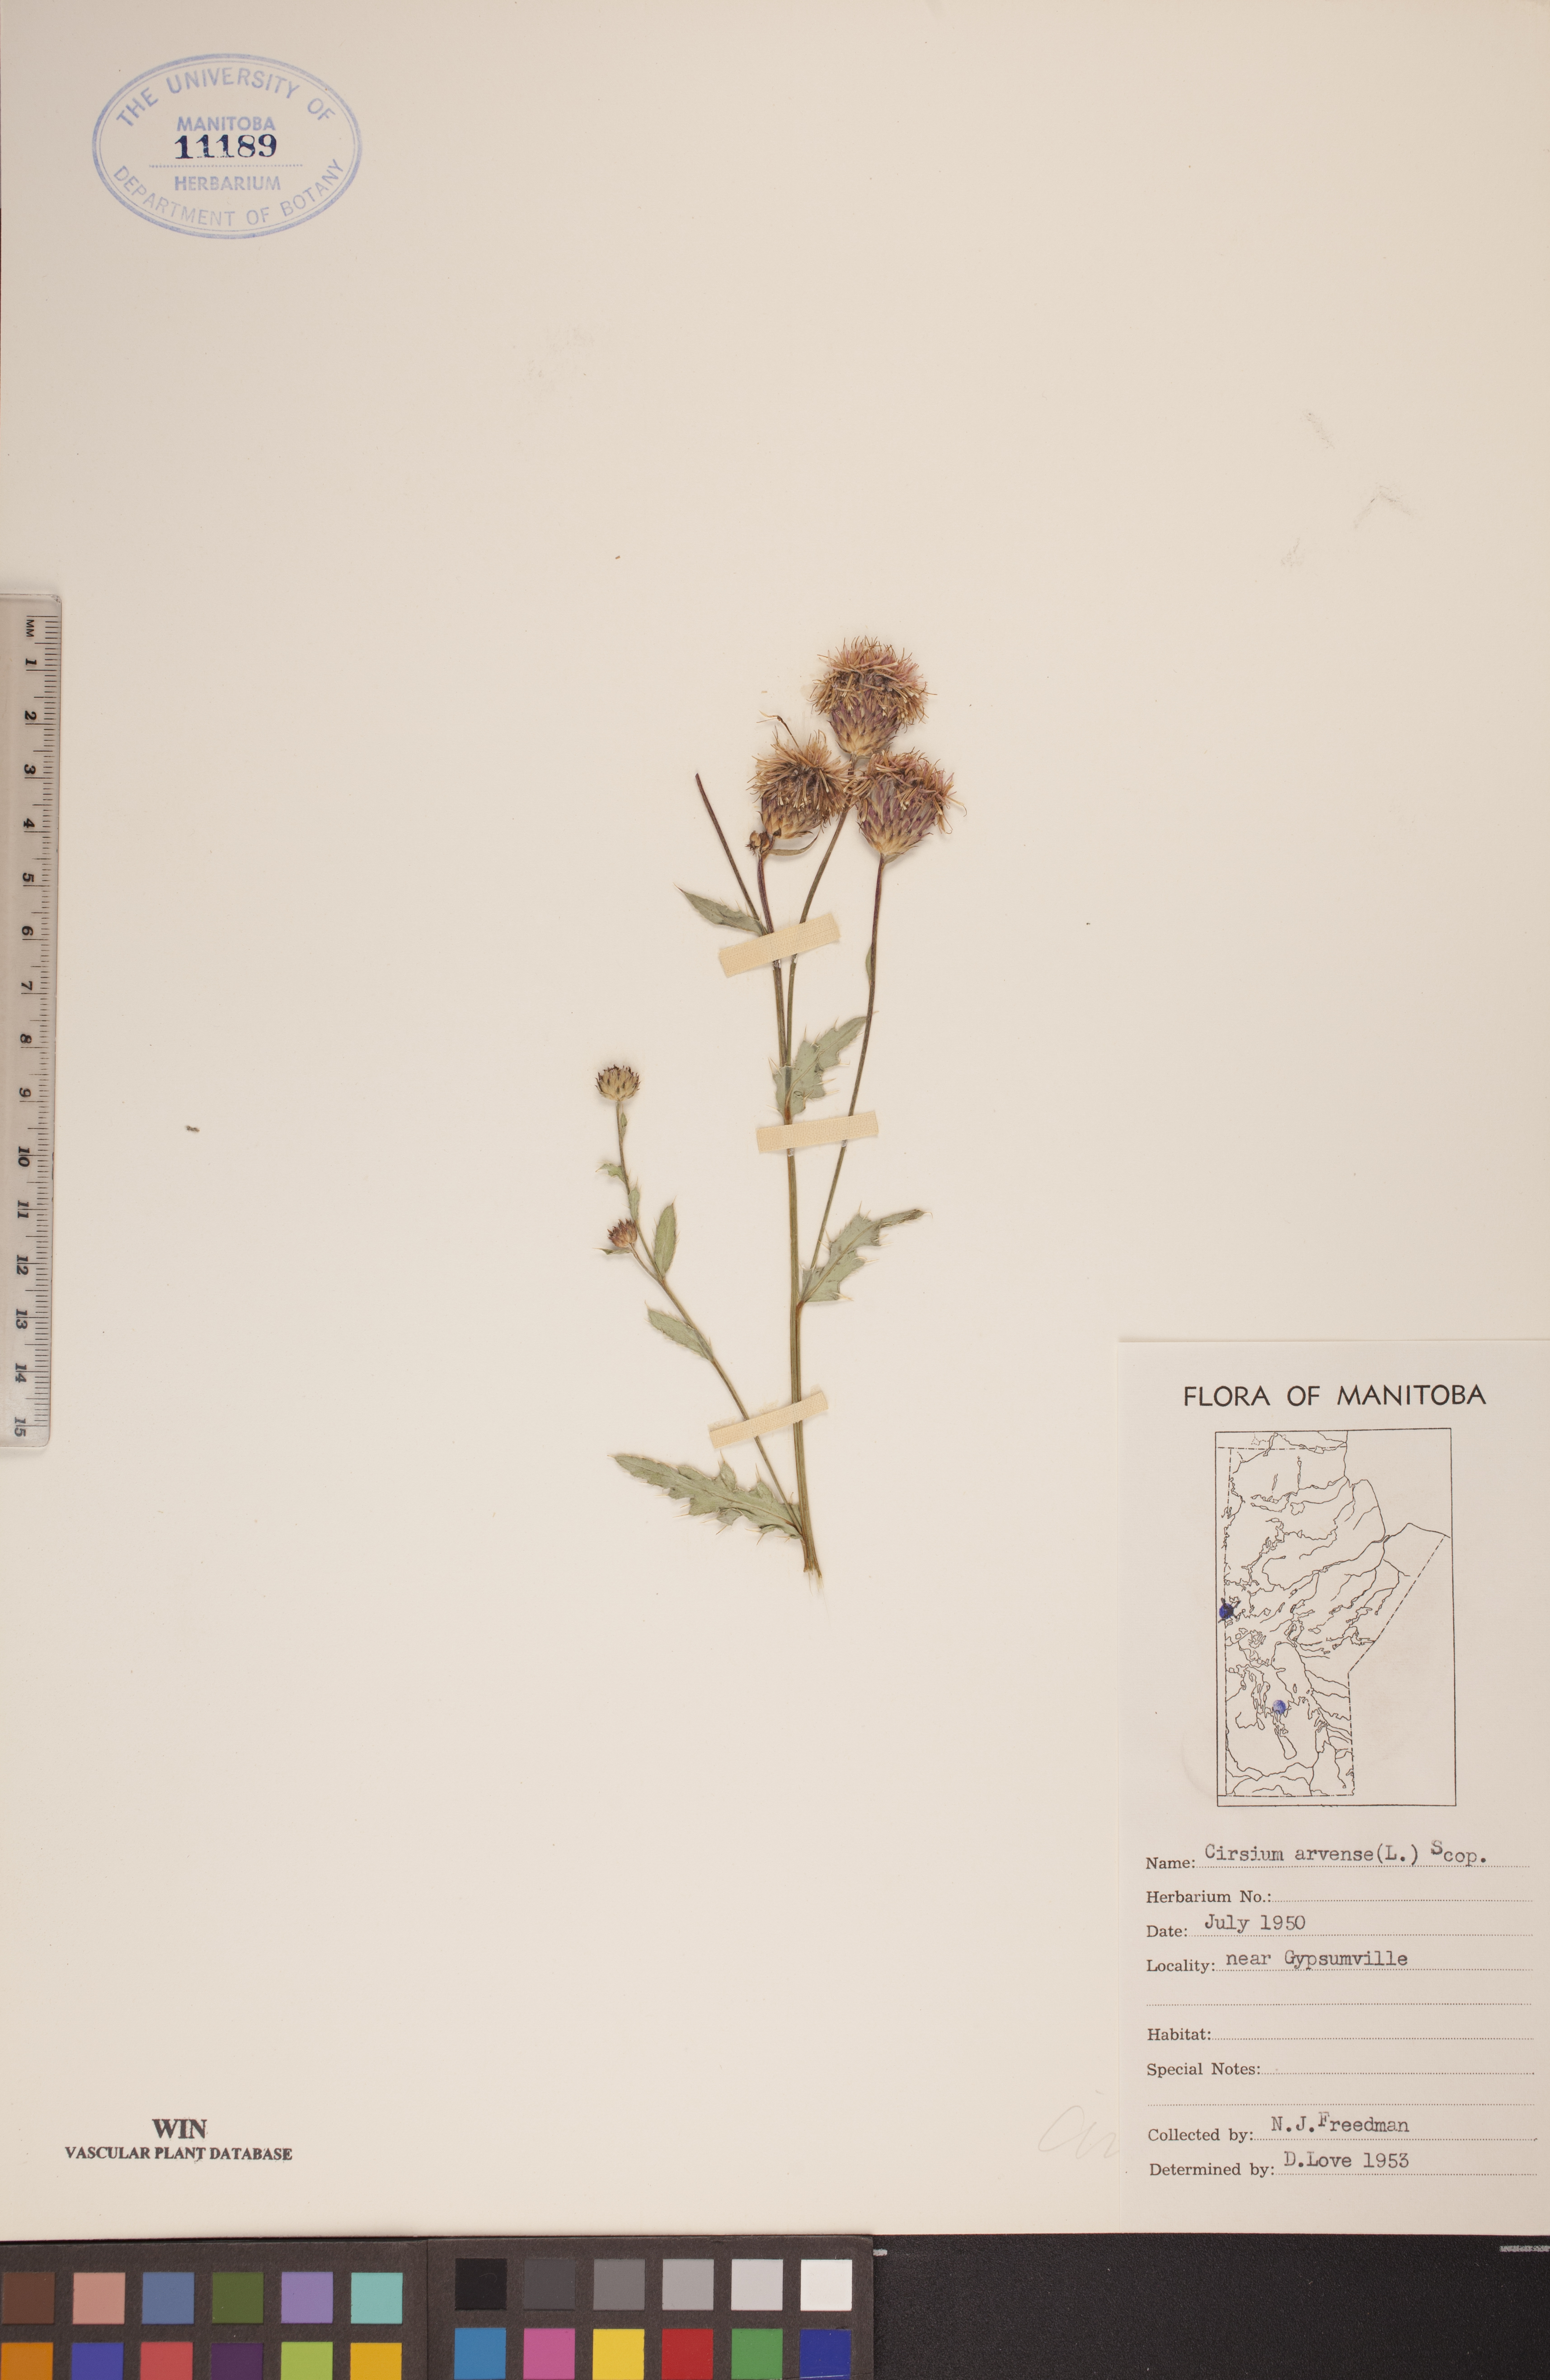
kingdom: Plantae
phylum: Tracheophyta
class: Magnoliopsida
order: Asterales
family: Asteraceae
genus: Cirsium
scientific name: Cirsium arvense
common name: Creeping thistle
